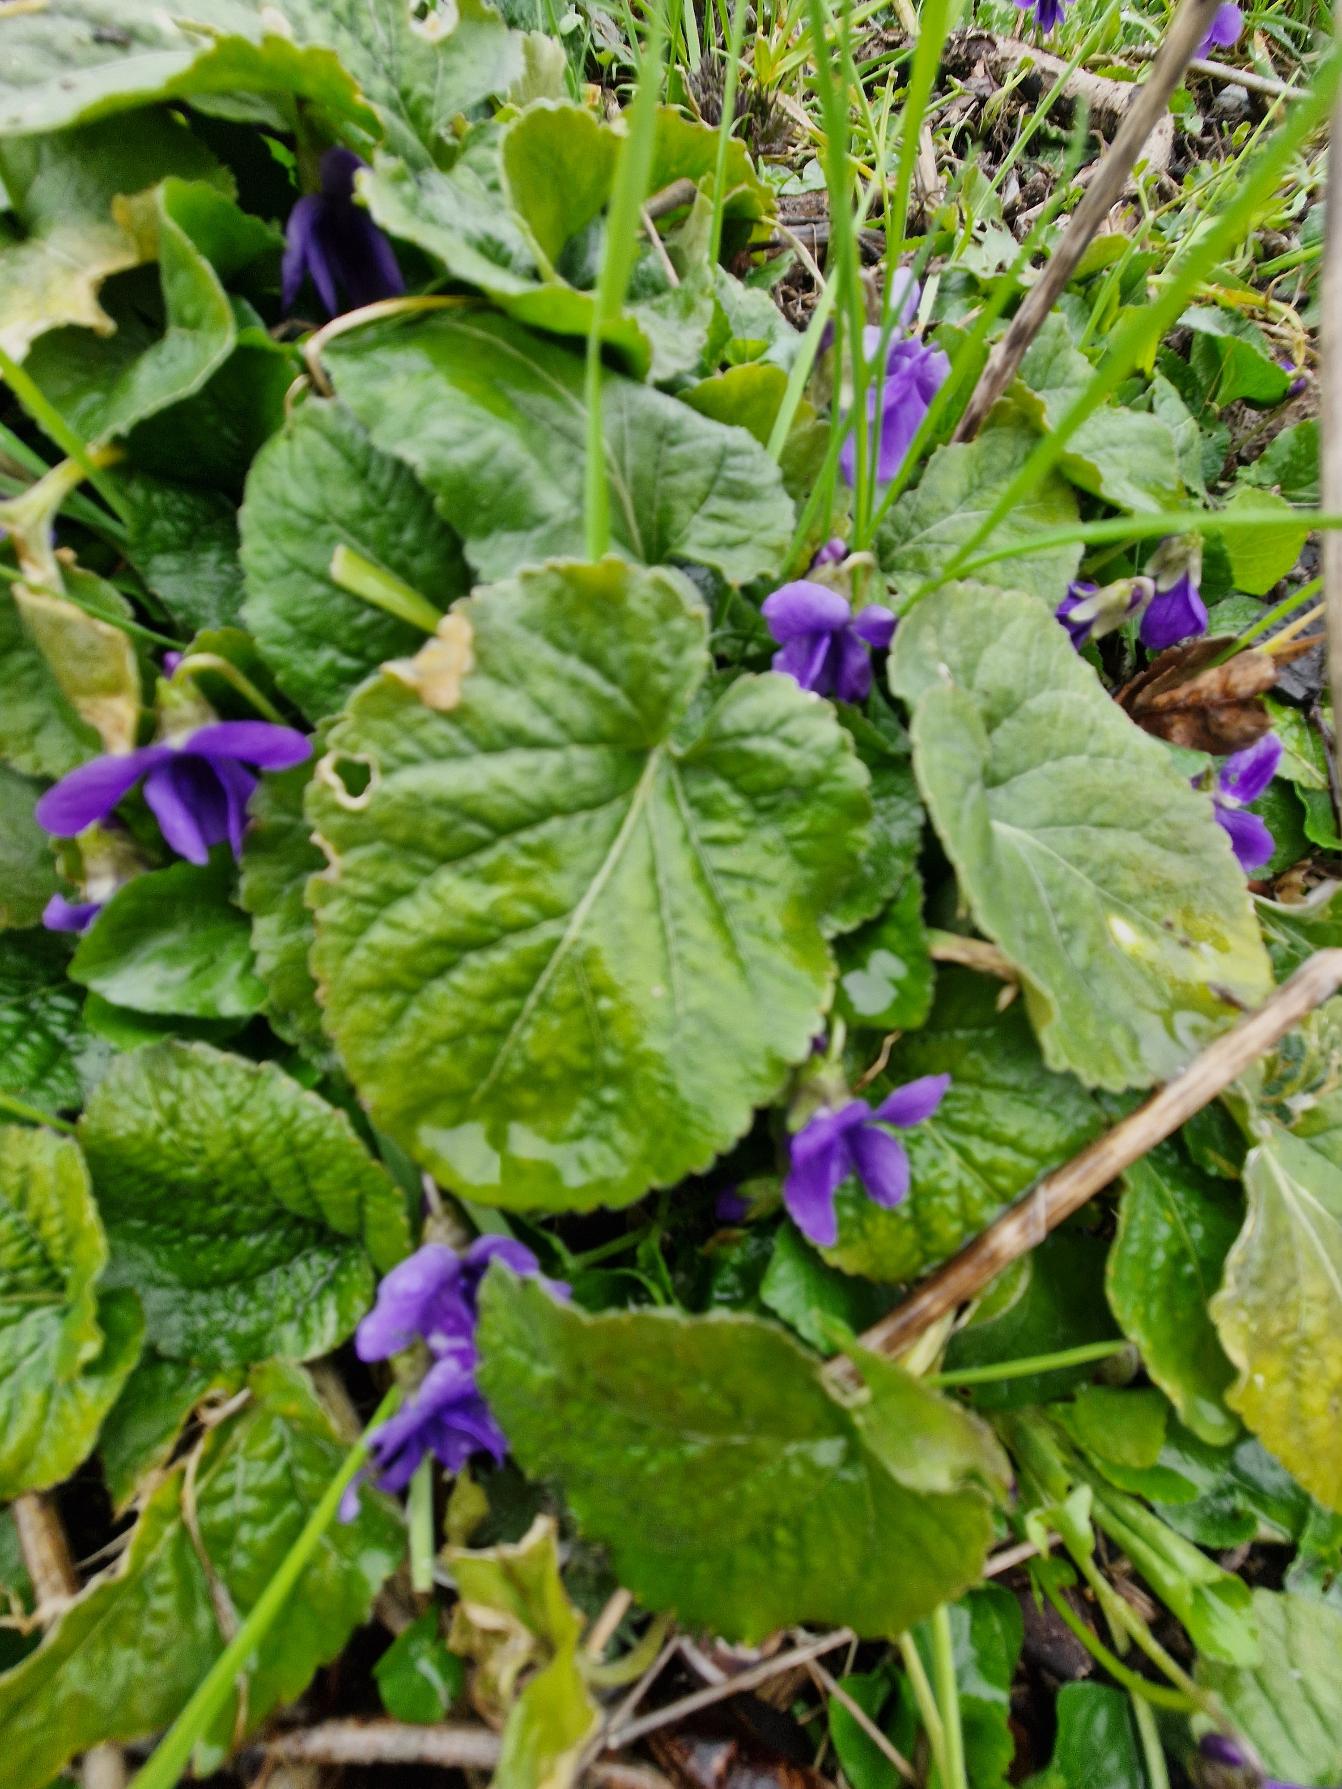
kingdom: Plantae
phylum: Tracheophyta
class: Magnoliopsida
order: Malpighiales
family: Violaceae
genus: Viola
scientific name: Viola odorata
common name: Marts-viol
